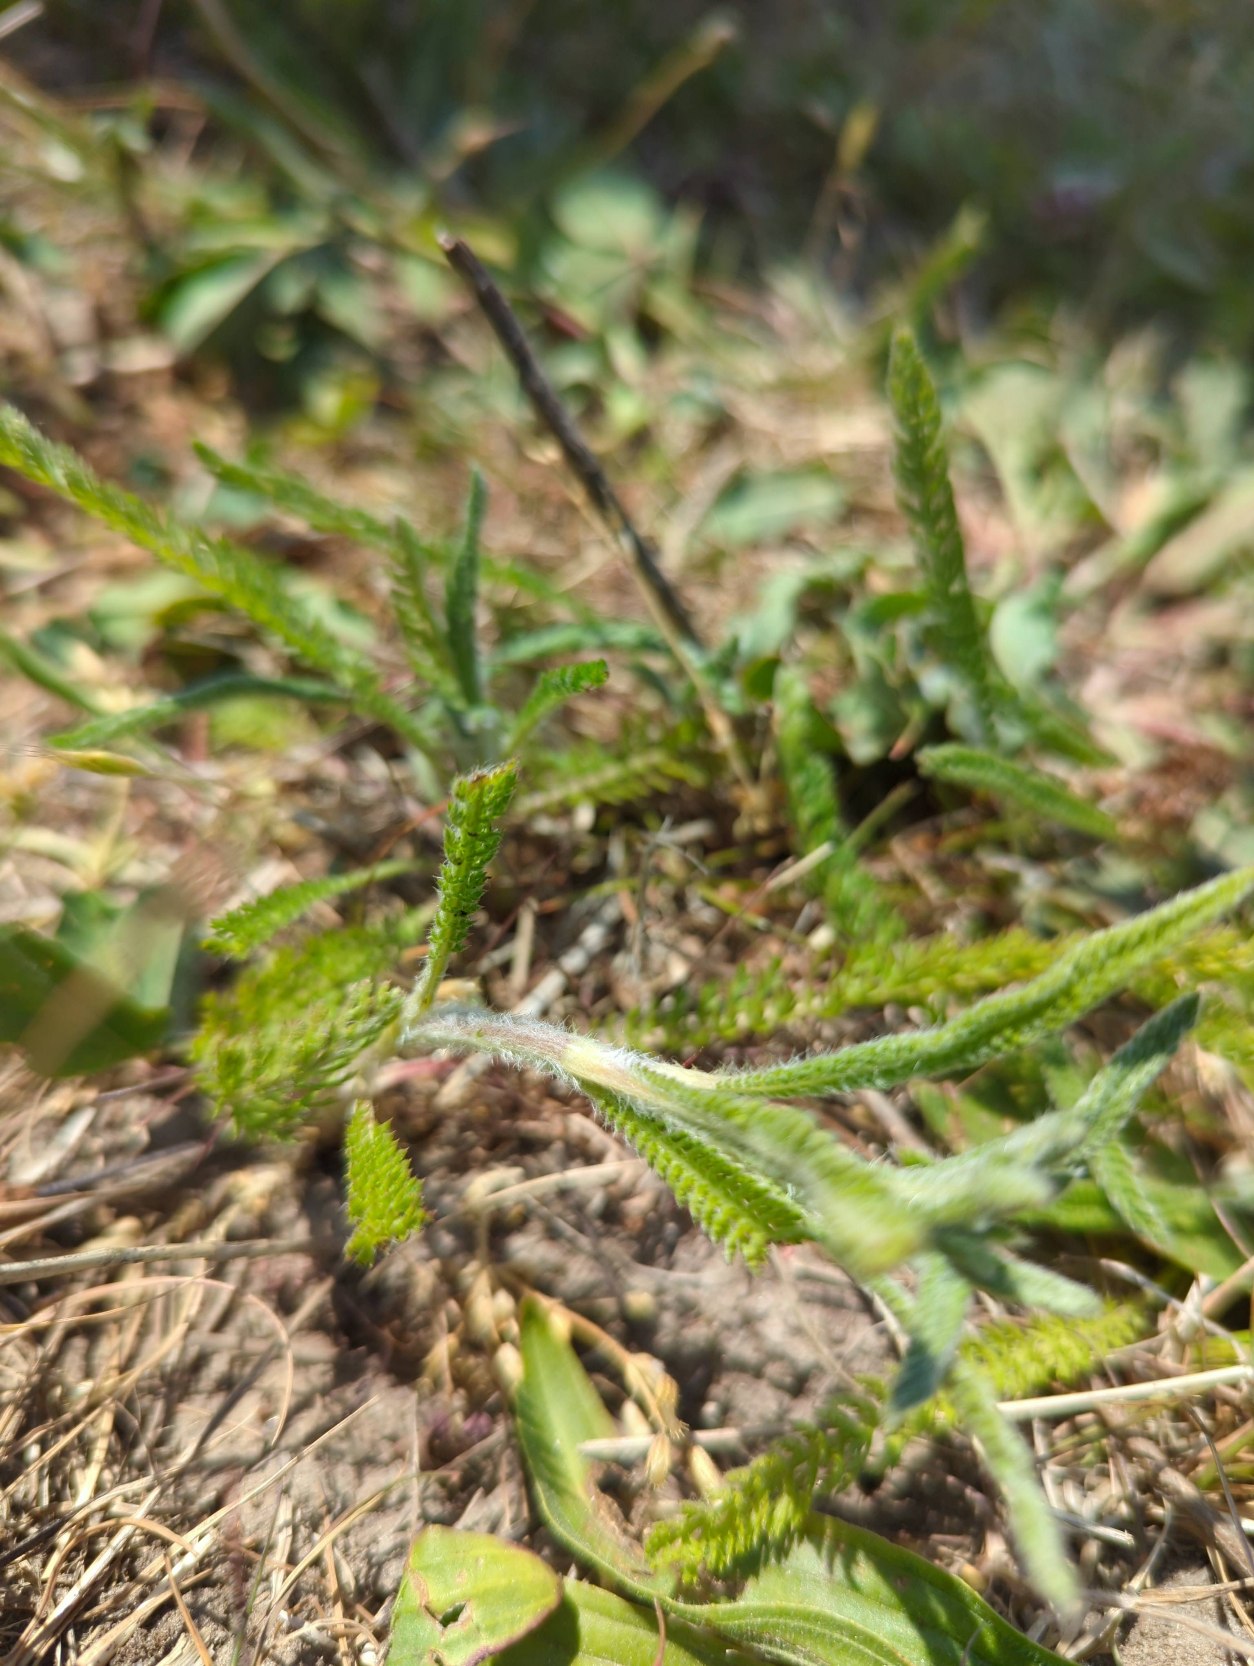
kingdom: Plantae
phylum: Tracheophyta
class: Magnoliopsida
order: Asterales
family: Asteraceae
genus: Achillea
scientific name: Achillea millefolium
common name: Almindelig røllike
